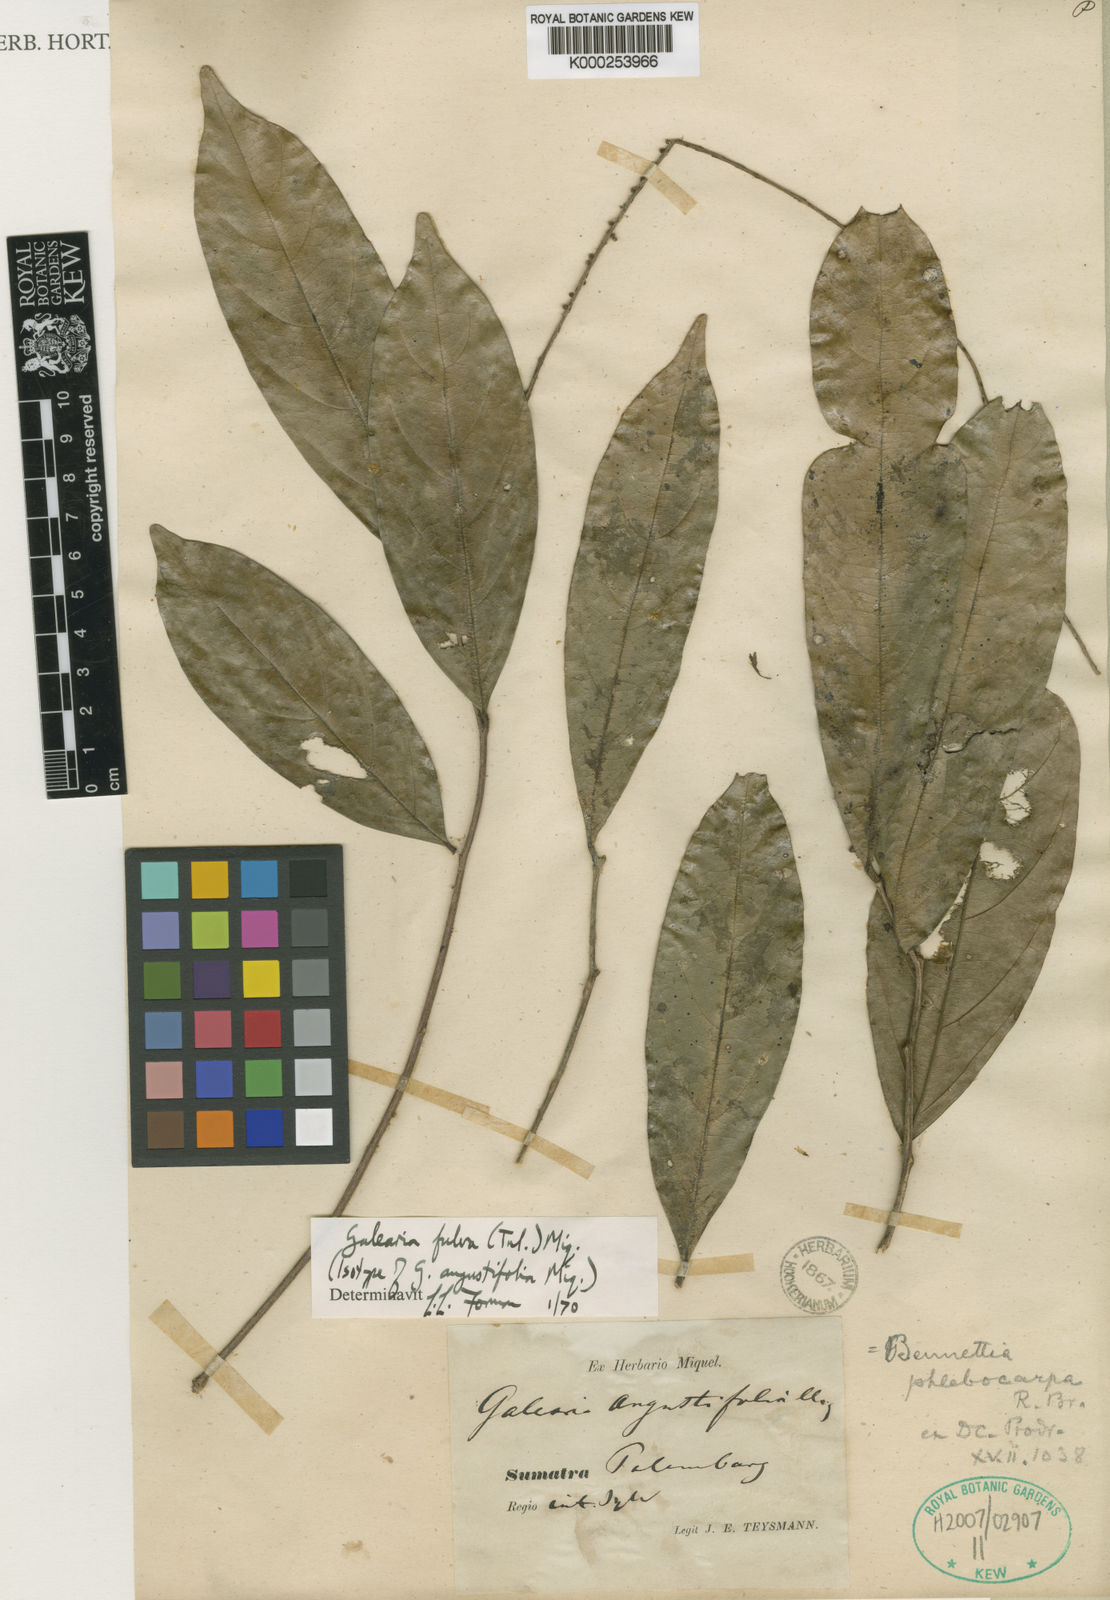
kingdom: Plantae
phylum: Tracheophyta
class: Magnoliopsida
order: Malpighiales
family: Pandaceae
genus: Galearia
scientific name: Galearia fulva
